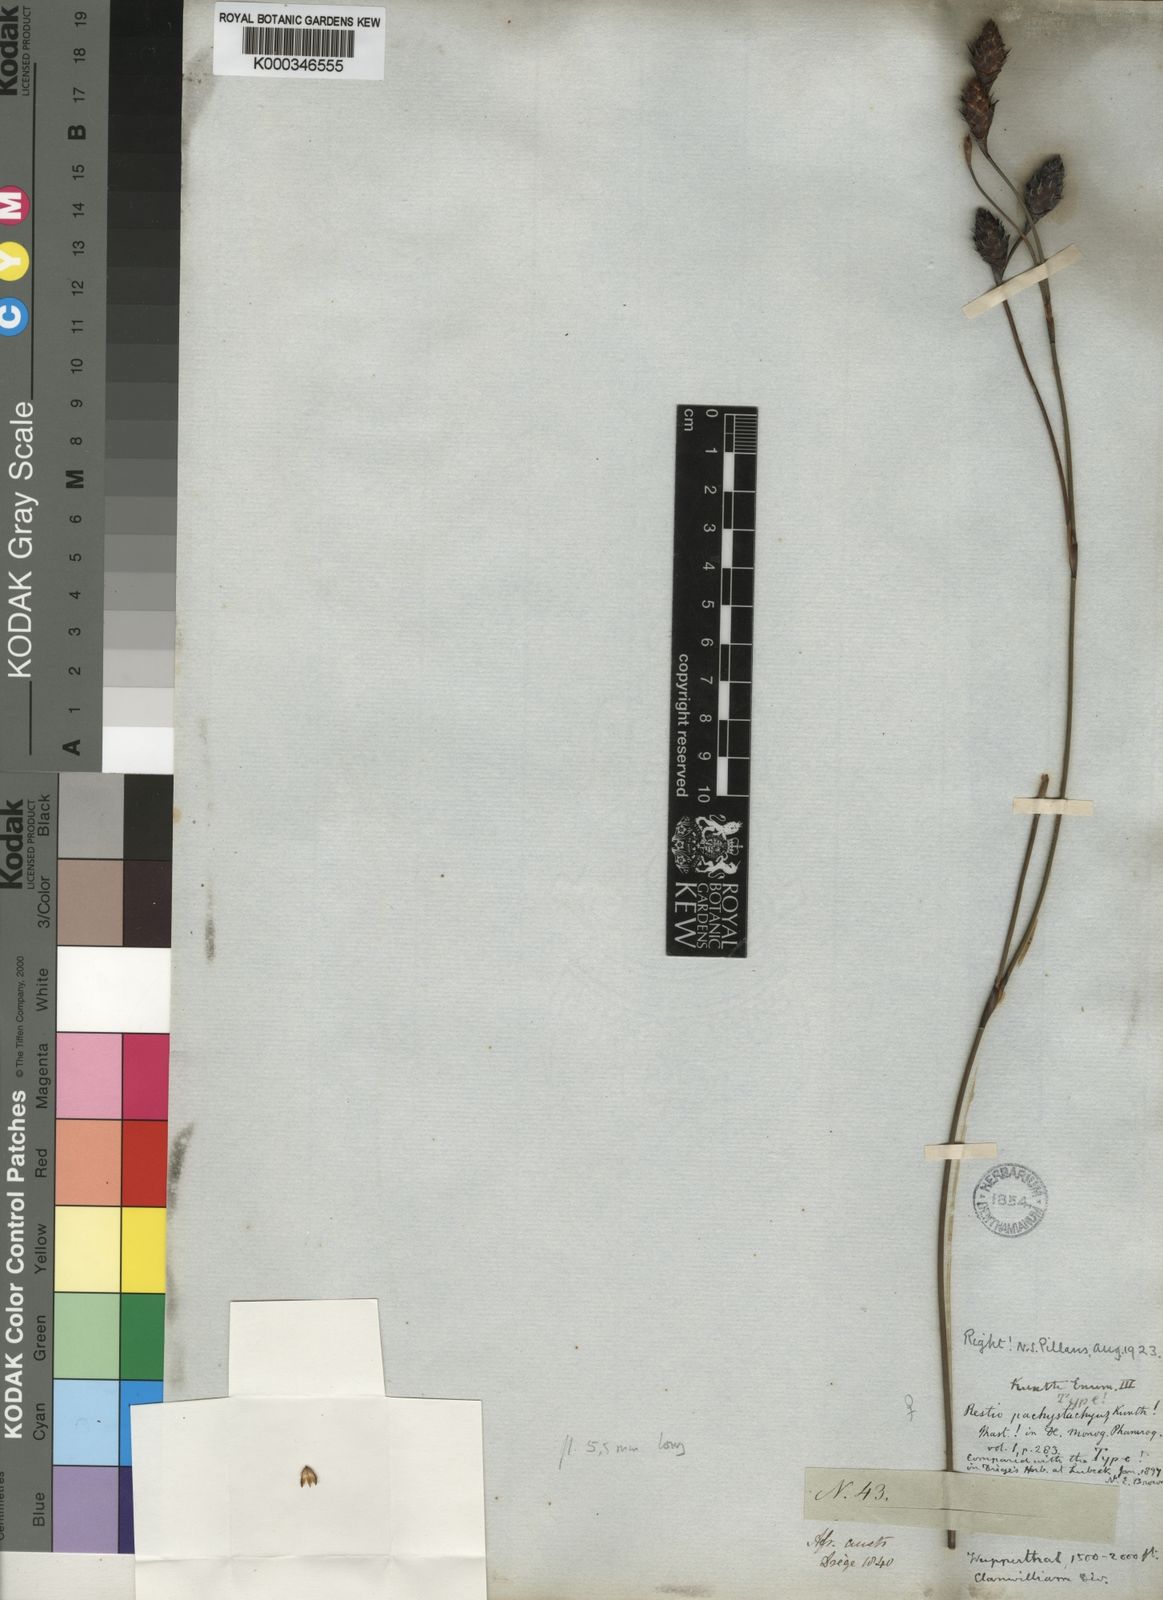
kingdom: Plantae
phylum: Tracheophyta
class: Liliopsida
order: Poales
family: Restionaceae
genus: Restio
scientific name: Restio pachystachyus
